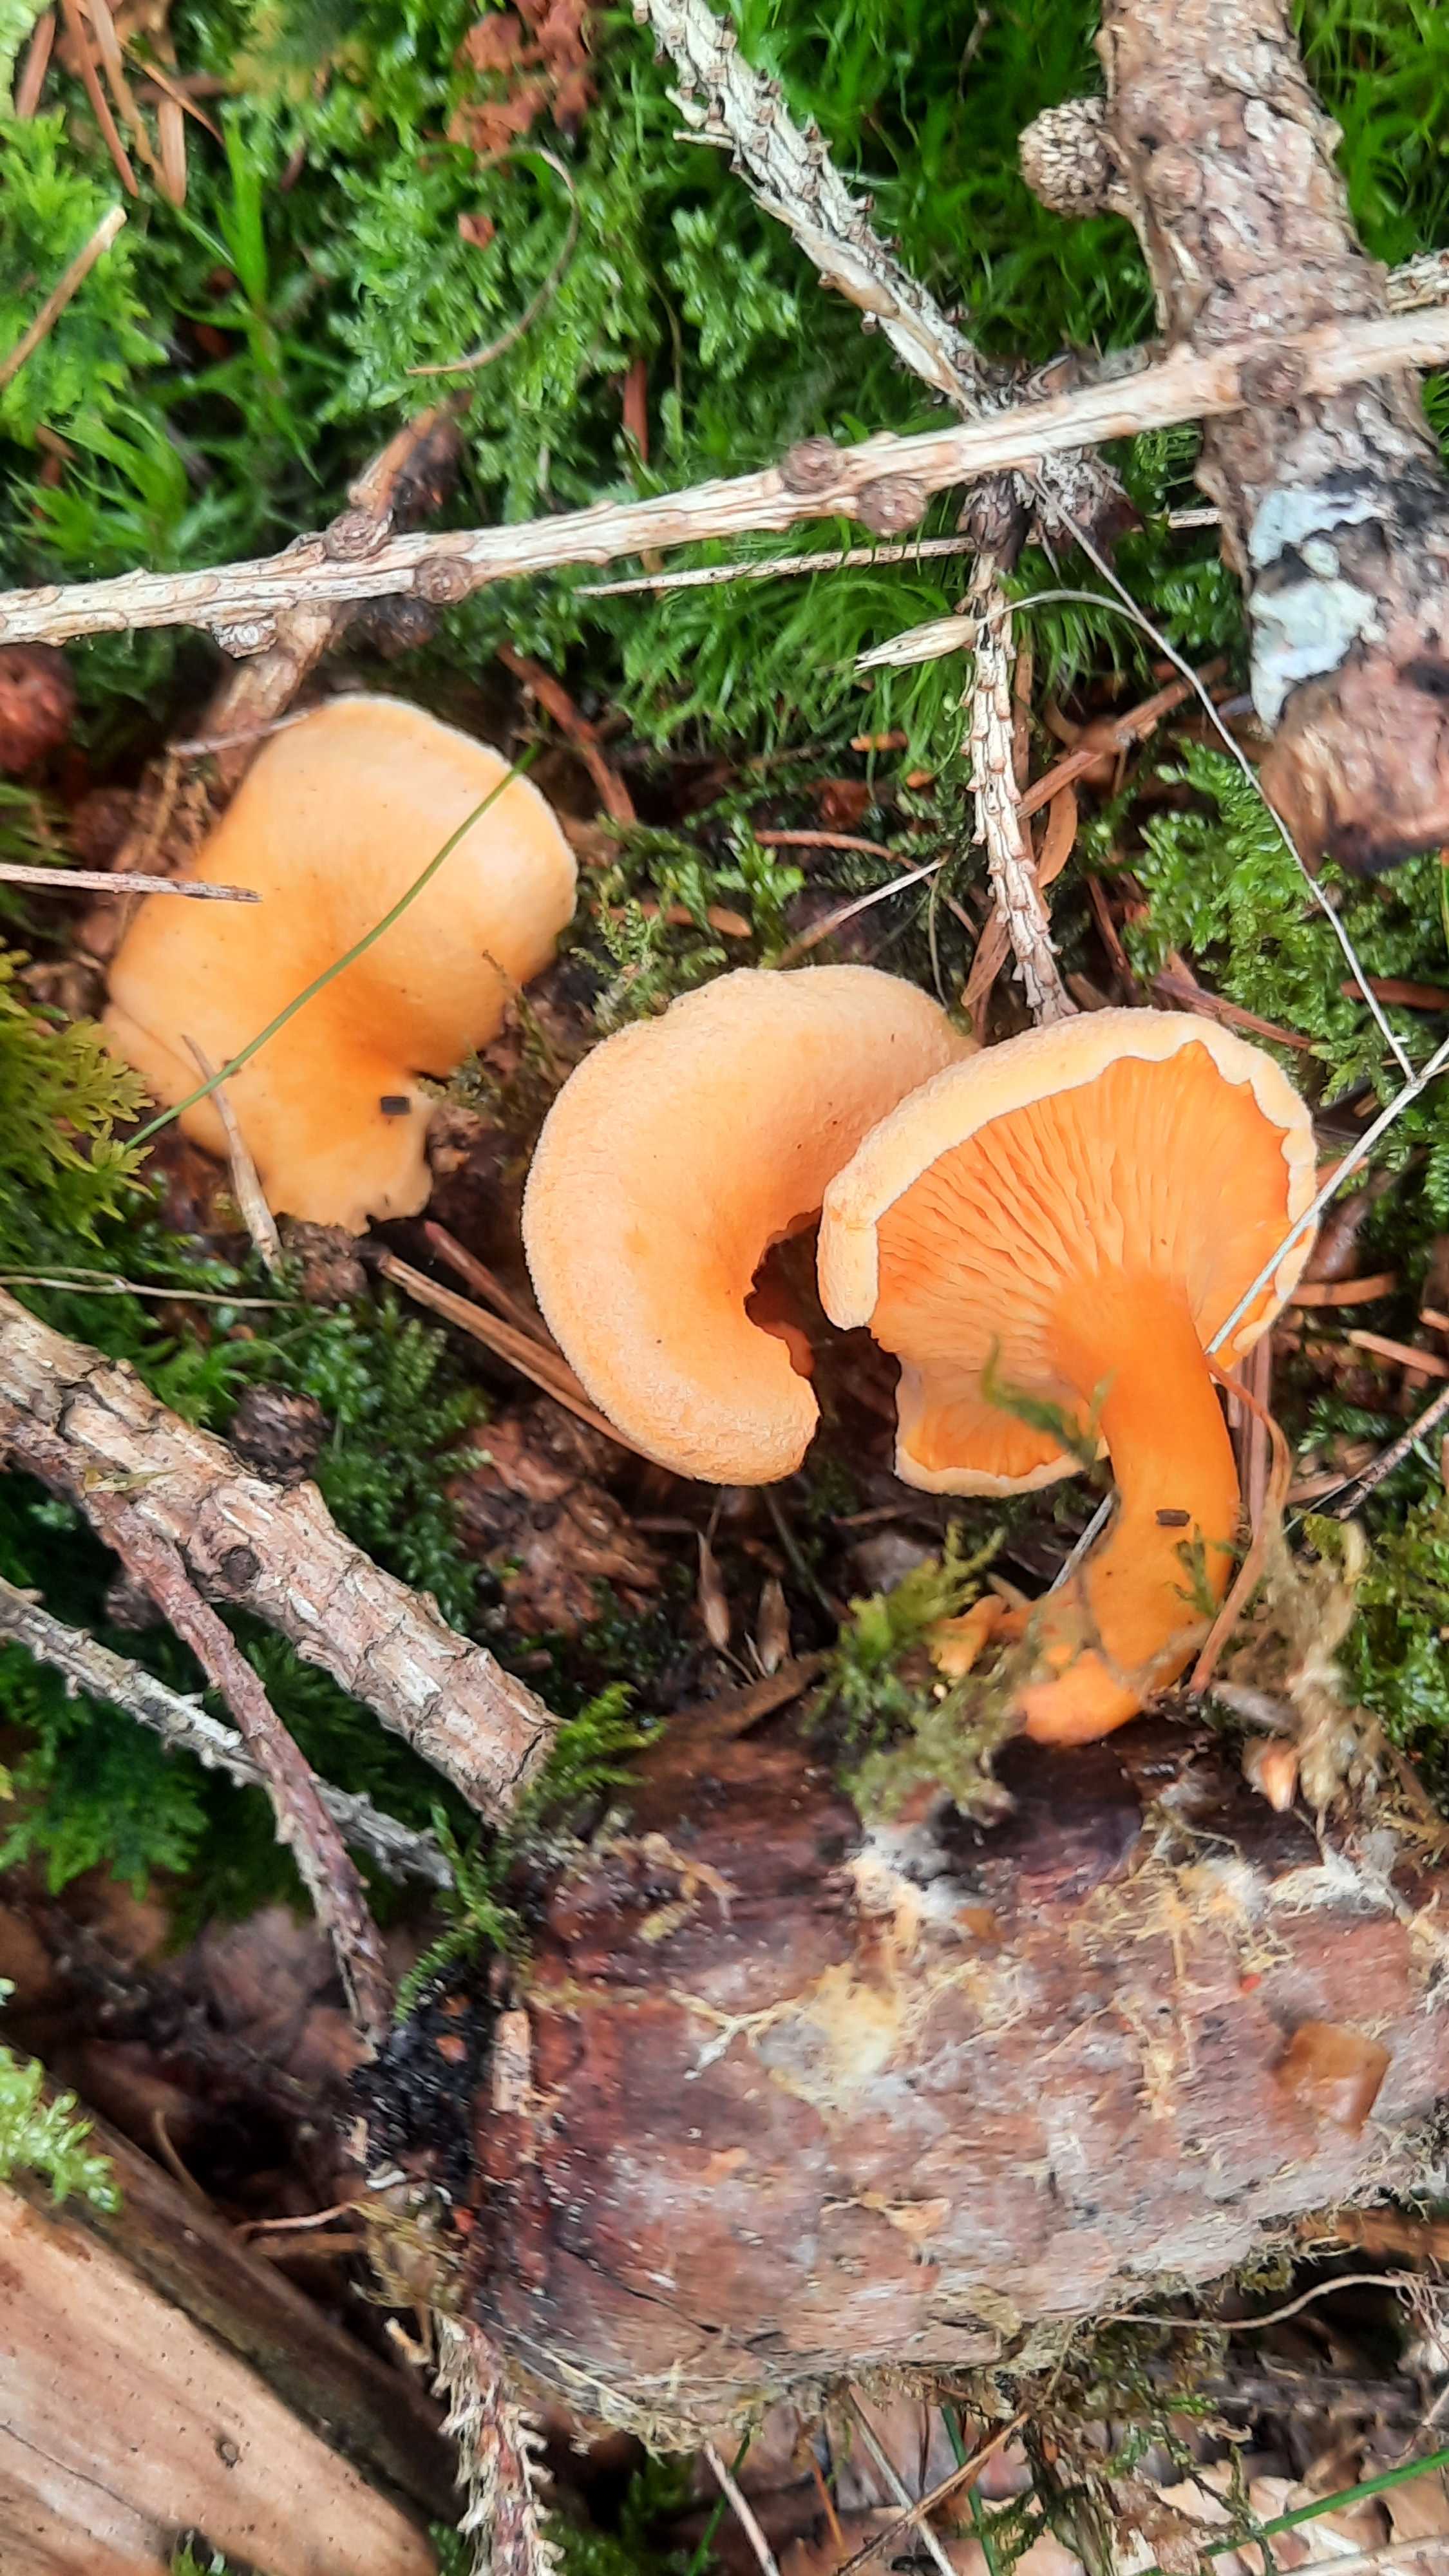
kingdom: Fungi
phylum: Basidiomycota
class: Agaricomycetes
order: Boletales
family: Hygrophoropsidaceae
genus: Hygrophoropsis
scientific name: Hygrophoropsis aurantiaca
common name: almindelig orangekantarel
